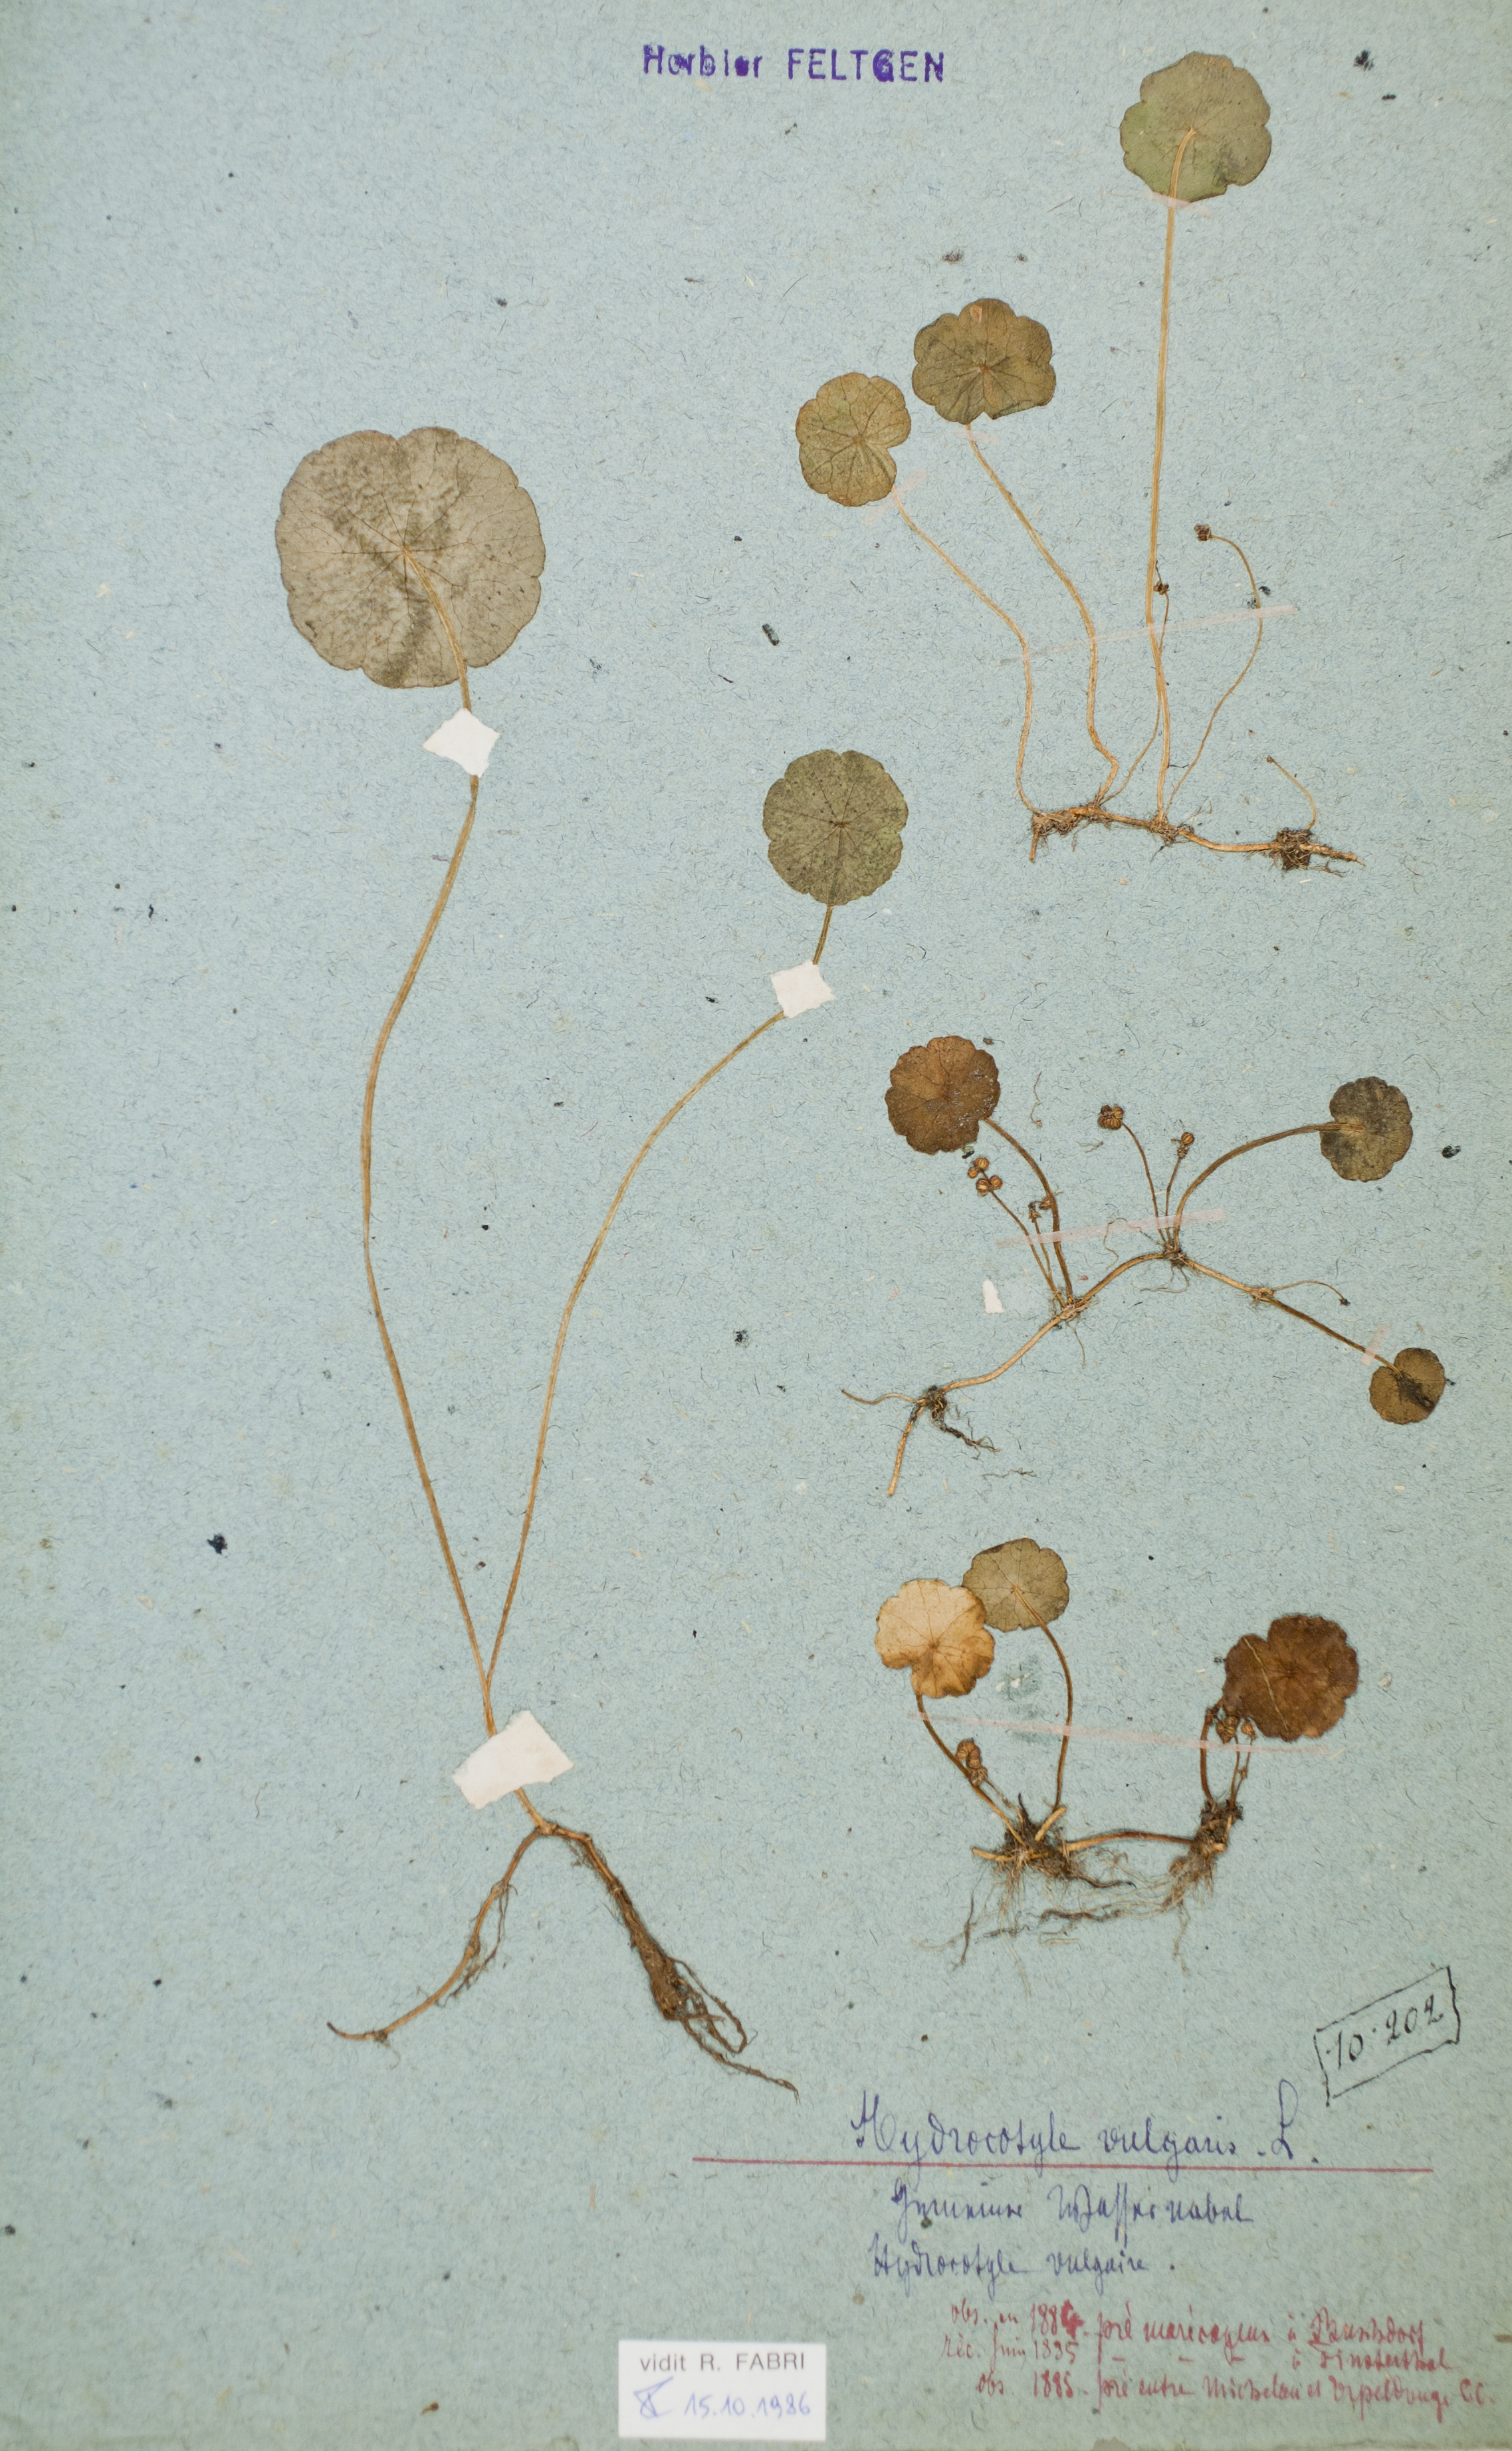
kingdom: Plantae
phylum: Tracheophyta
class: Magnoliopsida
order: Apiales
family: Araliaceae
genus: Hydrocotyle
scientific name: Hydrocotyle vulgaris
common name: Marsh pennywort
